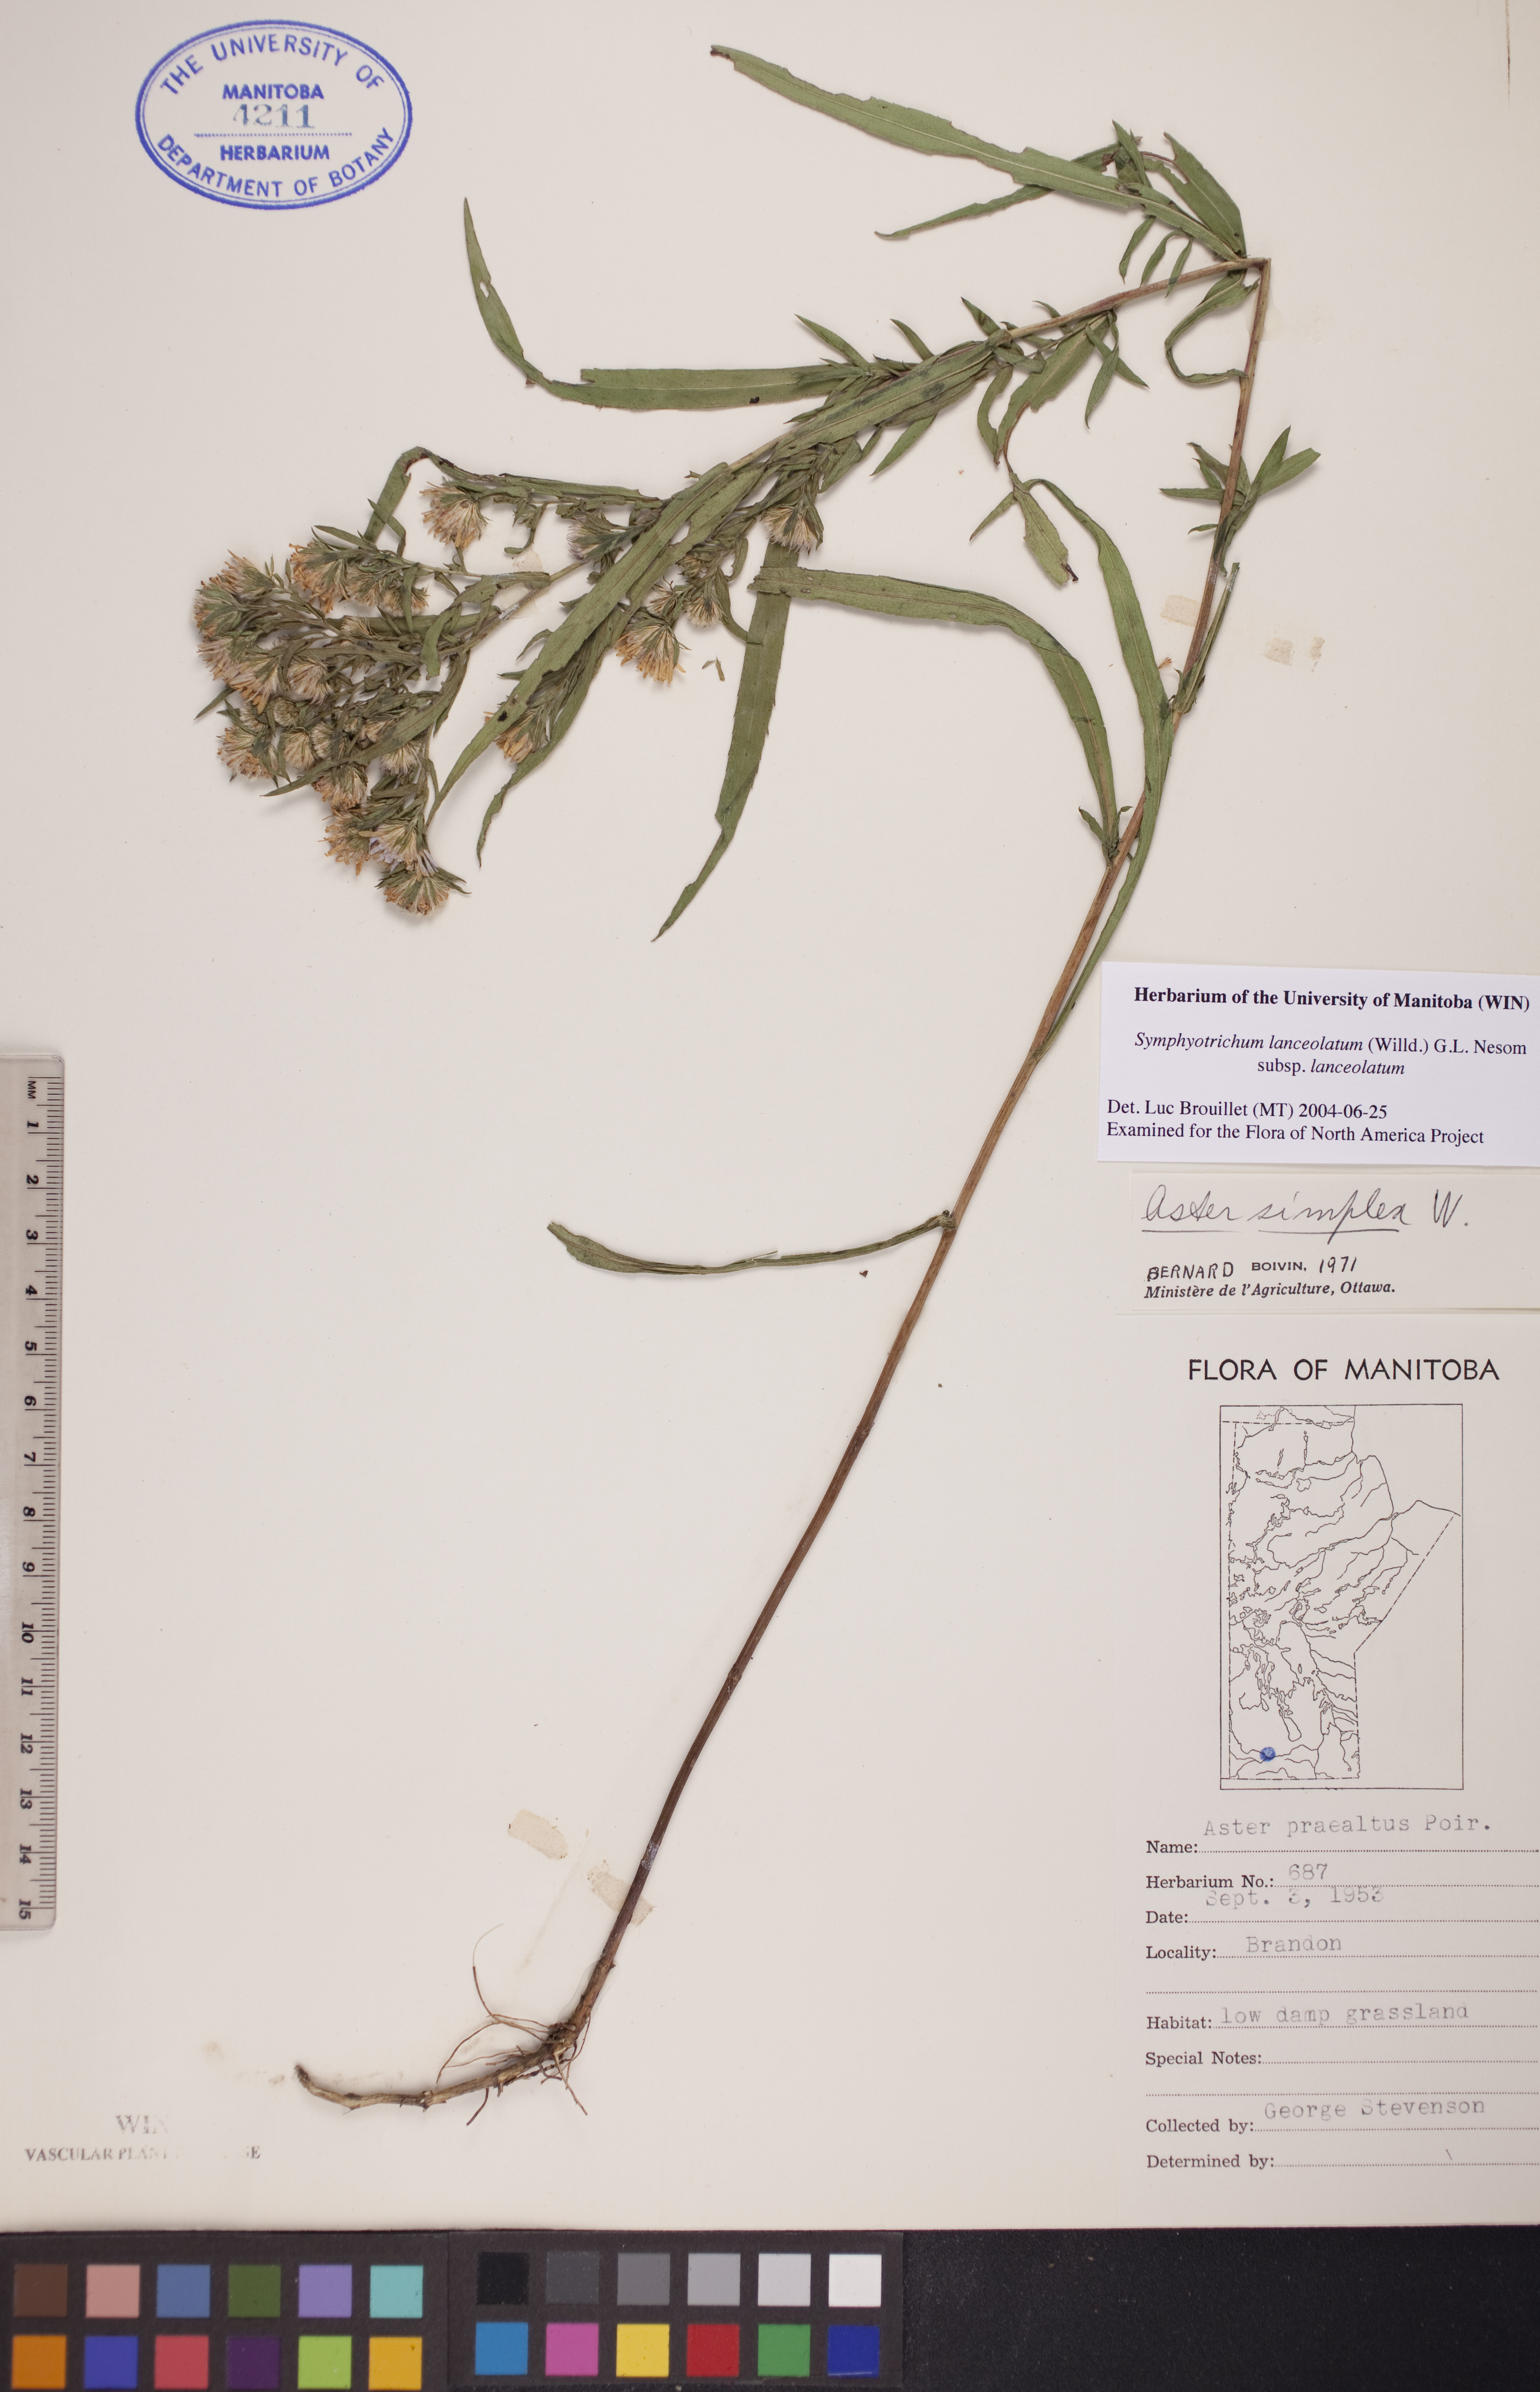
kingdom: Plantae
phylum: Tracheophyta
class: Magnoliopsida
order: Asterales
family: Asteraceae
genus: Symphyotrichum
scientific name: Symphyotrichum lanceolatum
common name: Panicled aster
